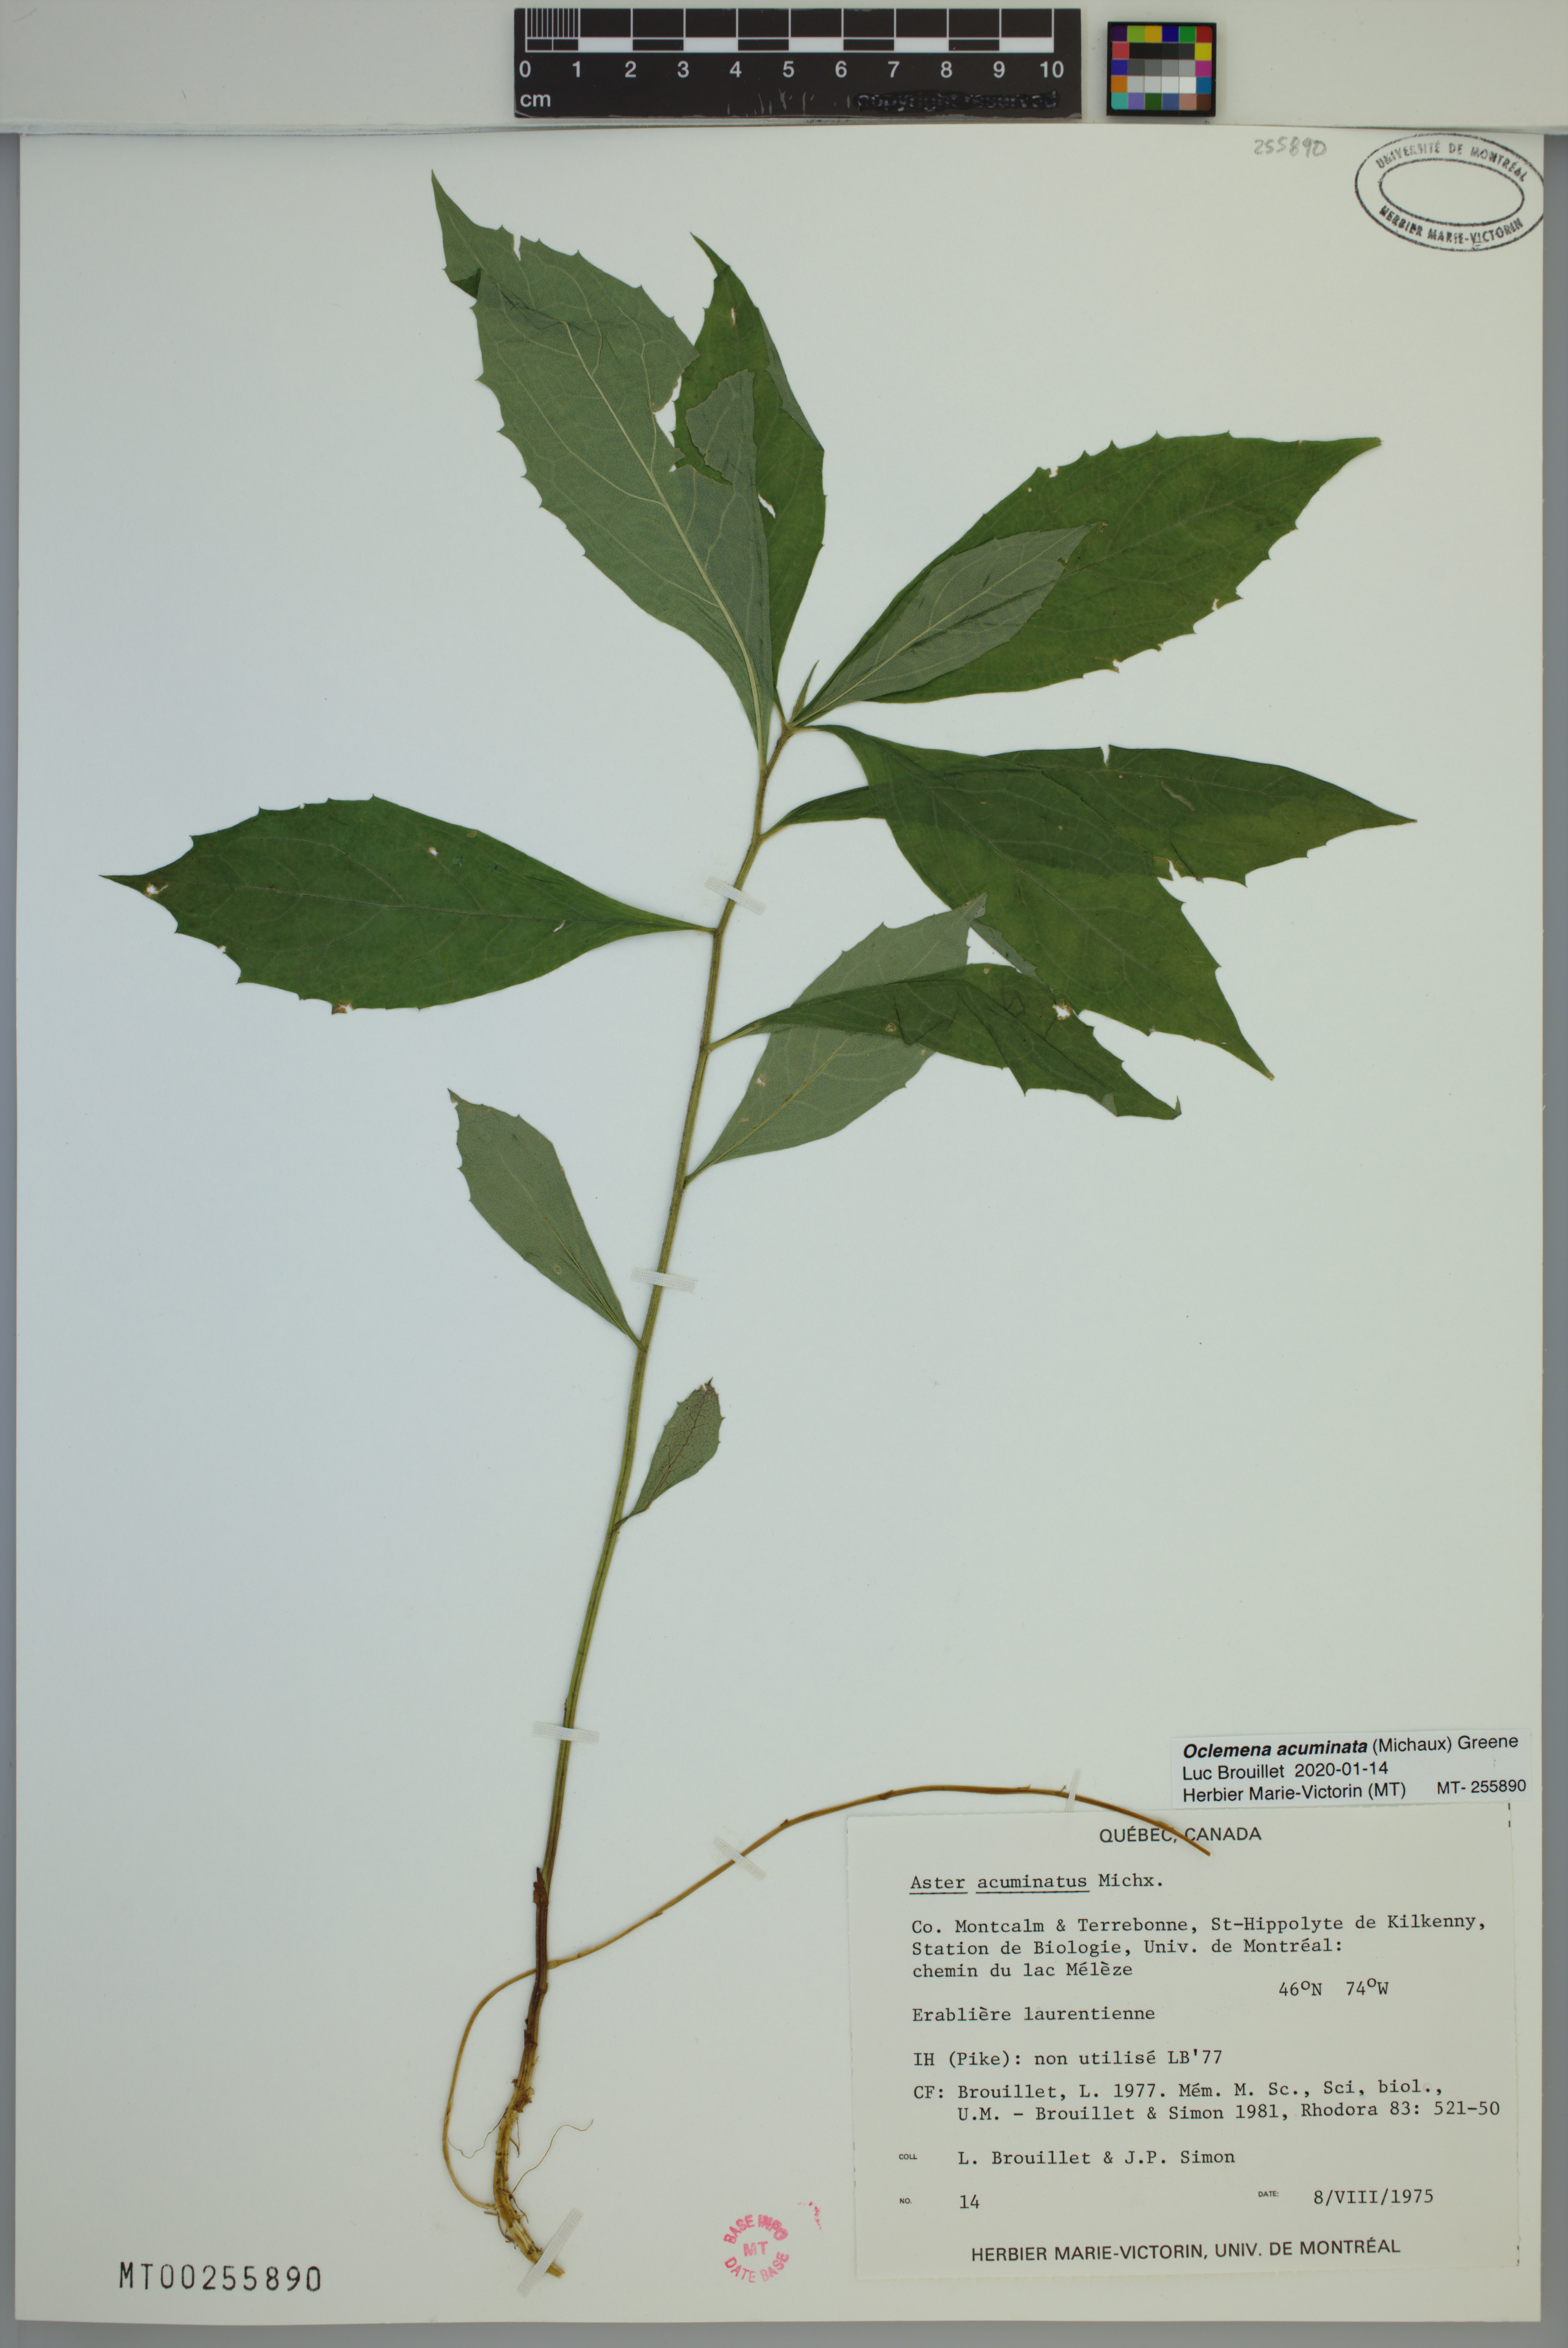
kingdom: Plantae
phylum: Tracheophyta
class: Magnoliopsida
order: Asterales
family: Asteraceae
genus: Oclemena
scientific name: Oclemena acuminata
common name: Mountain aster
